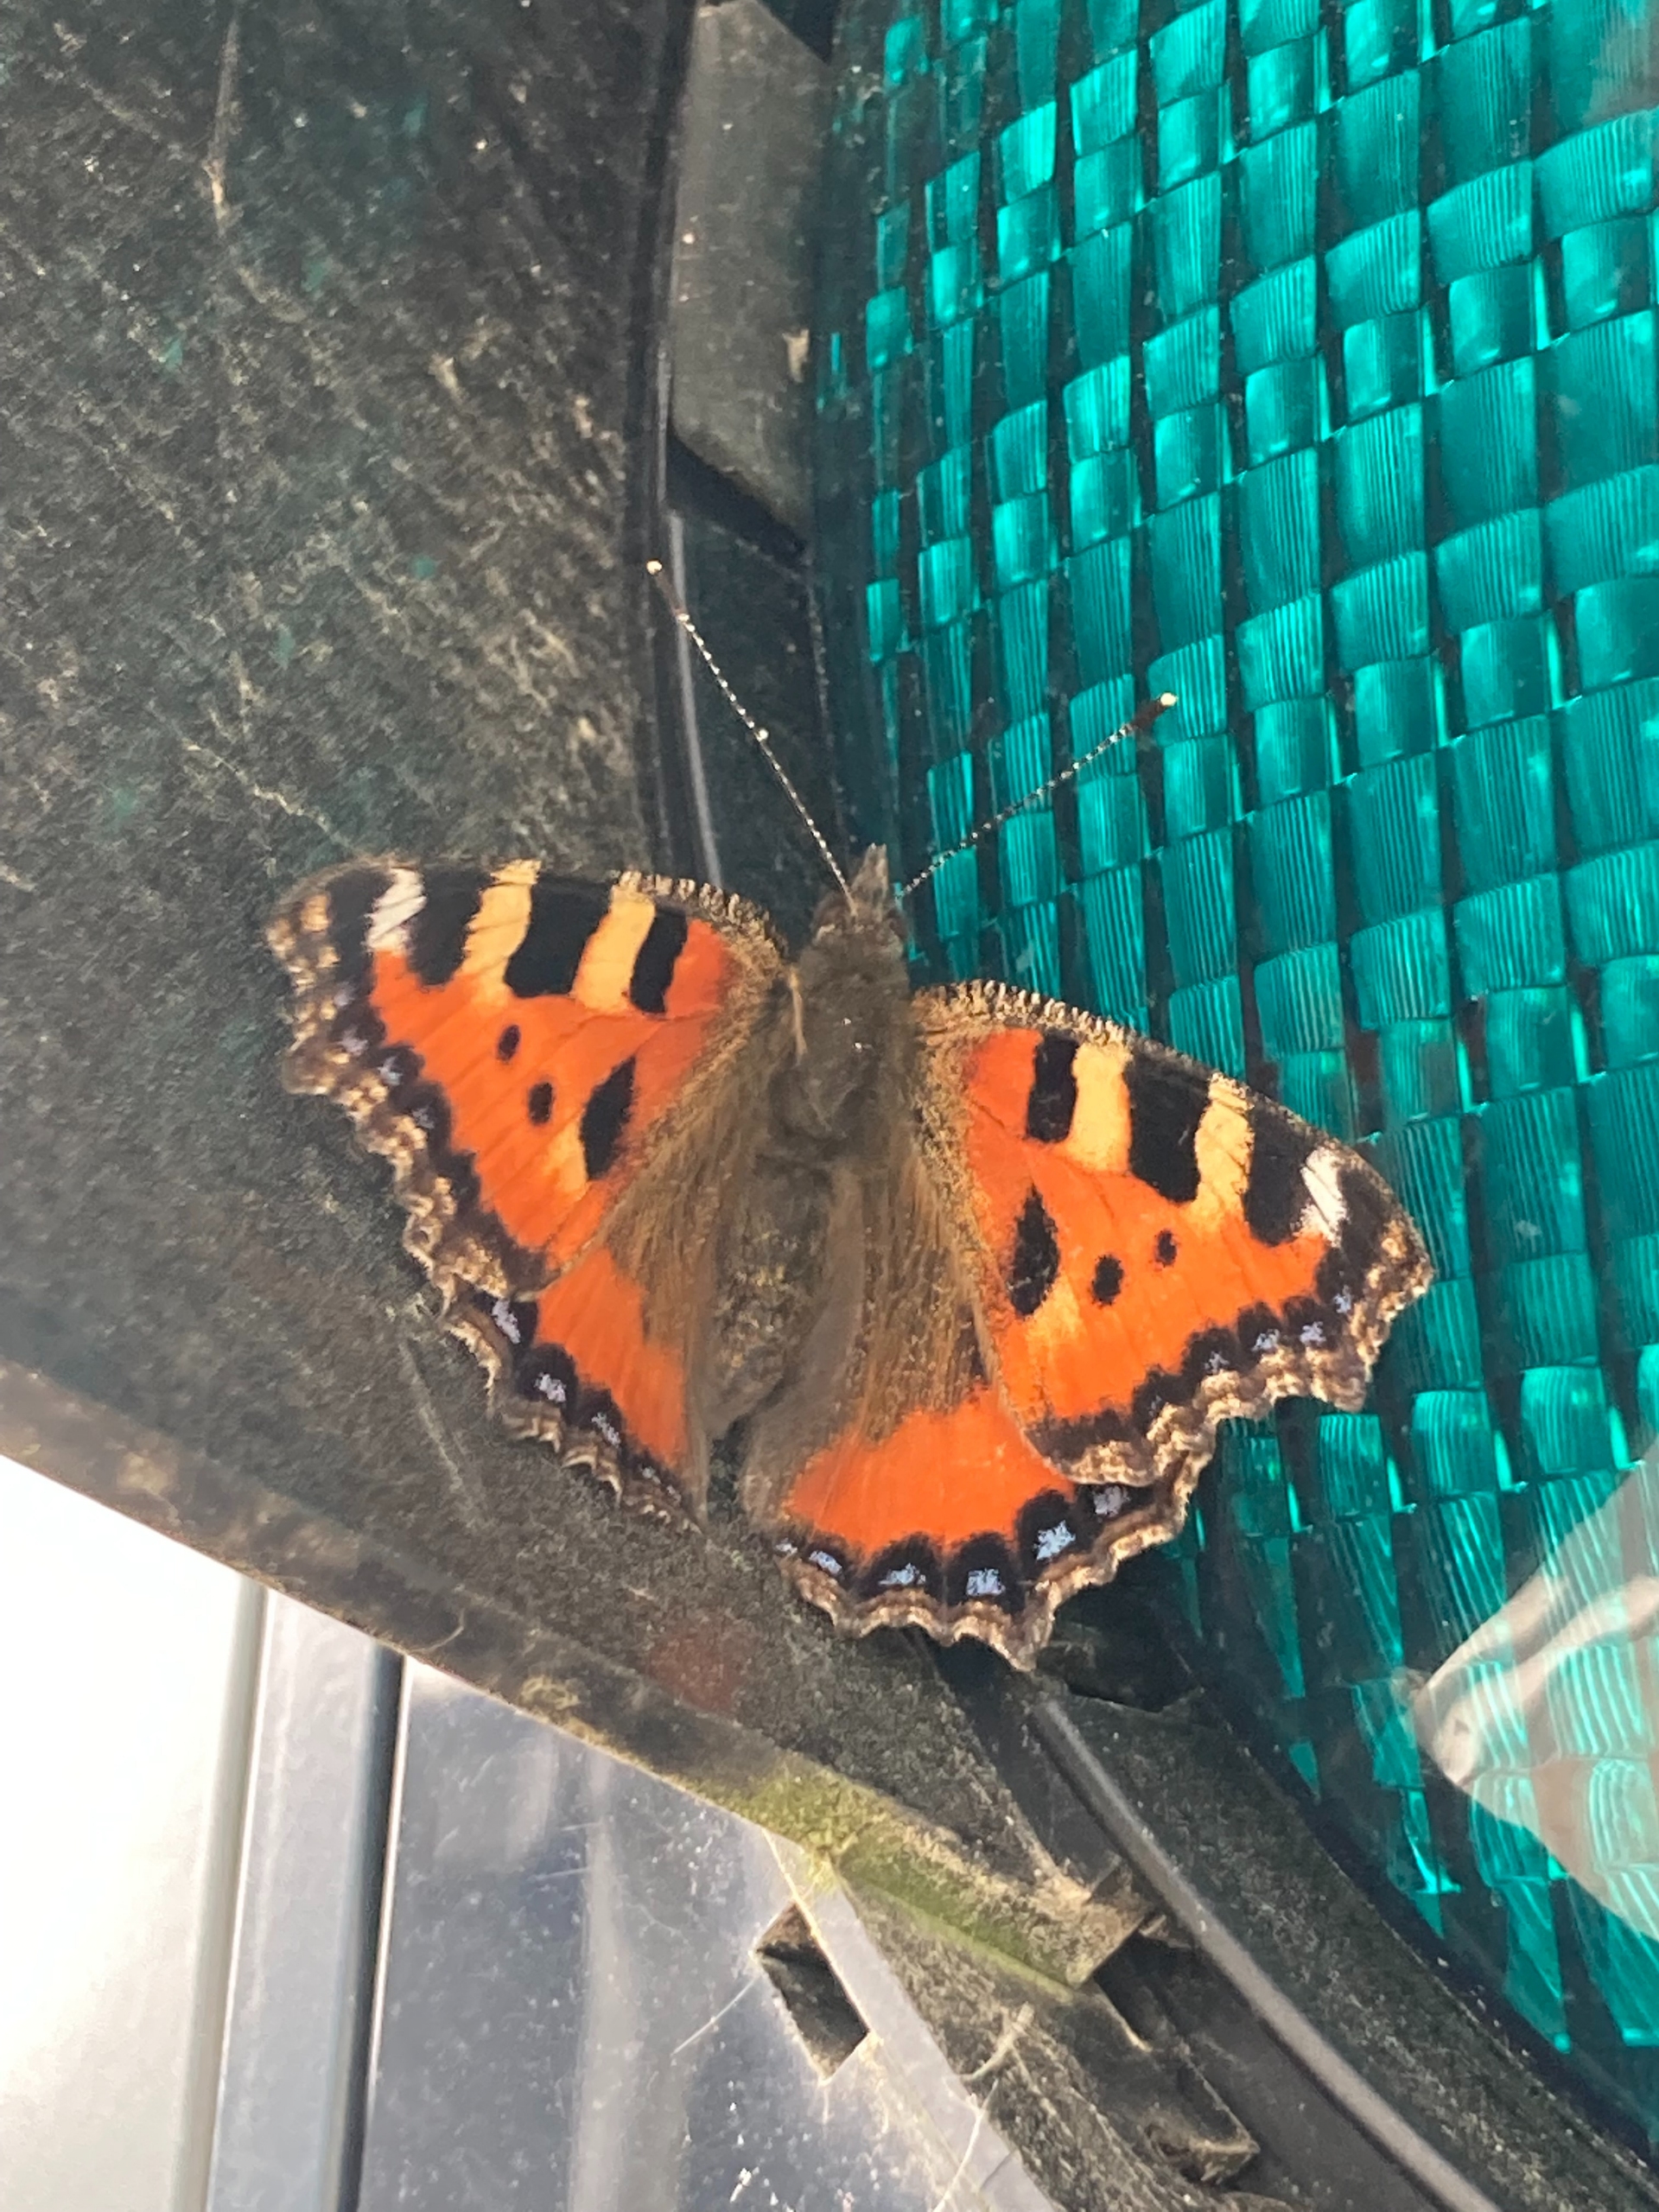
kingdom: Animalia
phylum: Arthropoda
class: Insecta
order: Lepidoptera
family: Nymphalidae
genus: Aglais
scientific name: Aglais urticae
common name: Nældens takvinge
